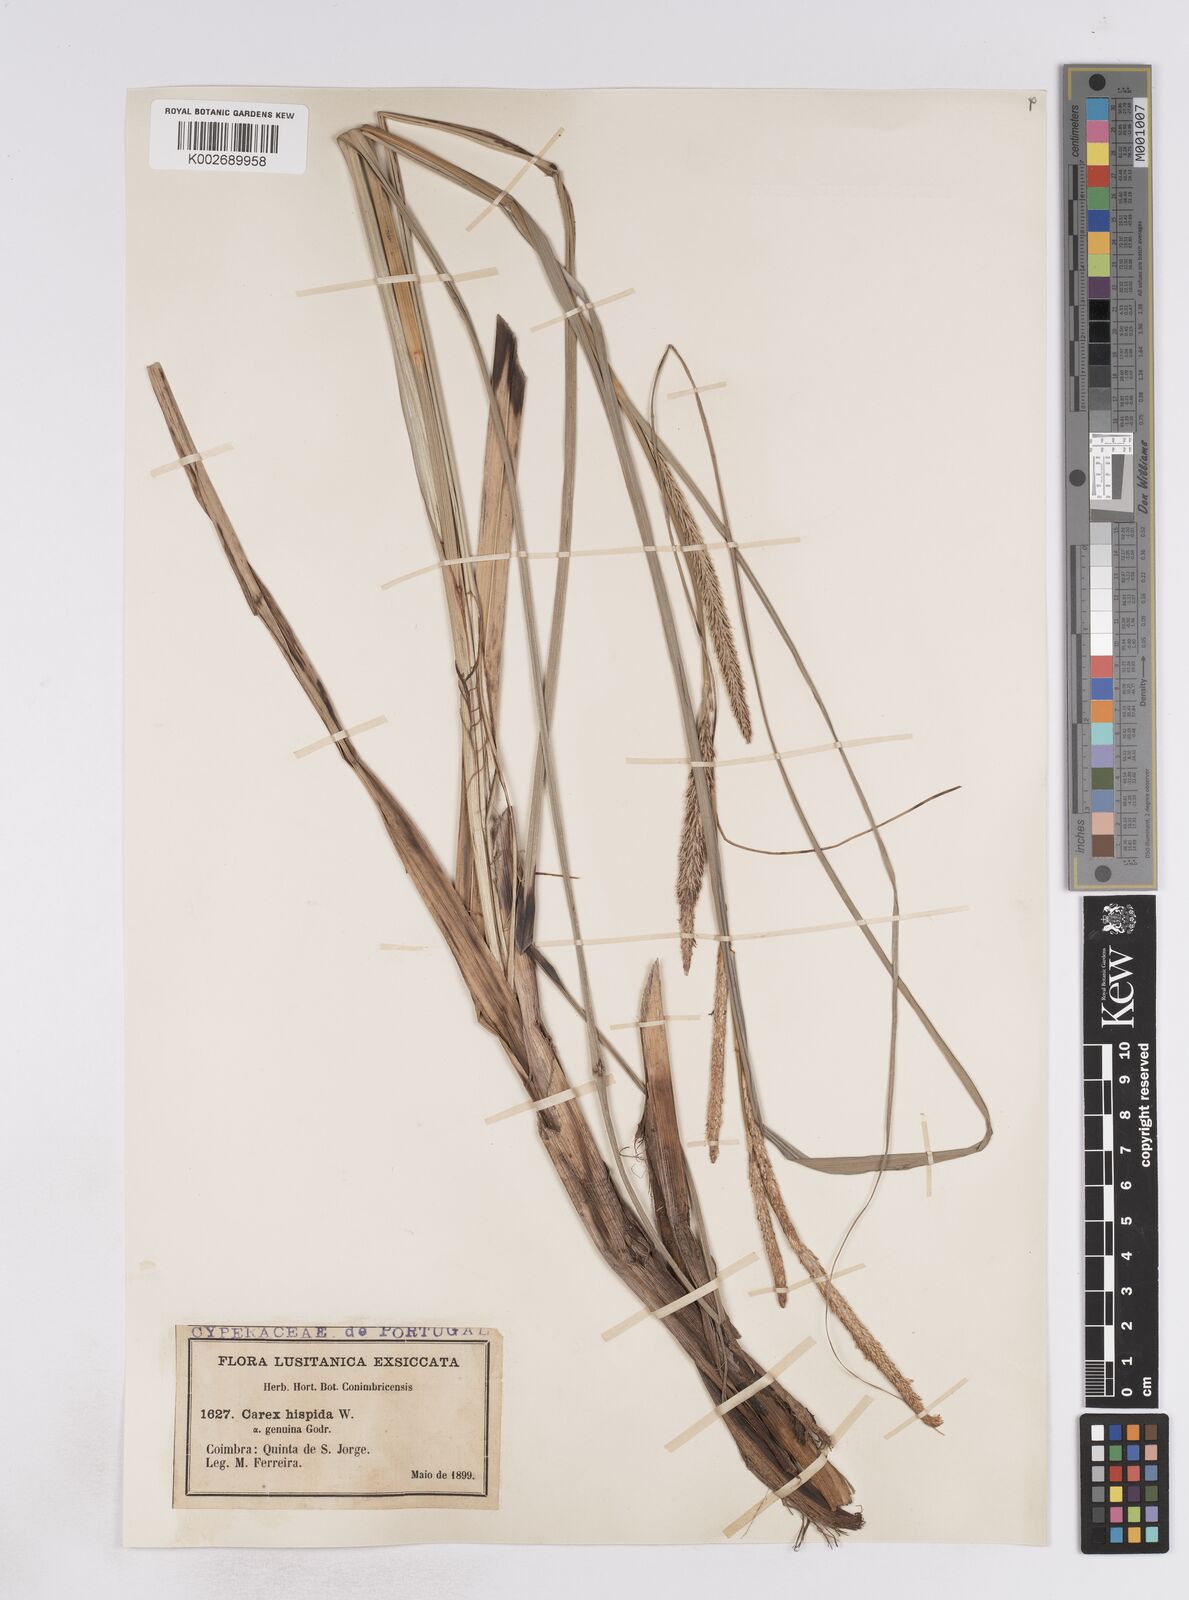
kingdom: Plantae
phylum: Tracheophyta
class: Liliopsida
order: Poales
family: Cyperaceae
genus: Carex
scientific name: Carex hispida
